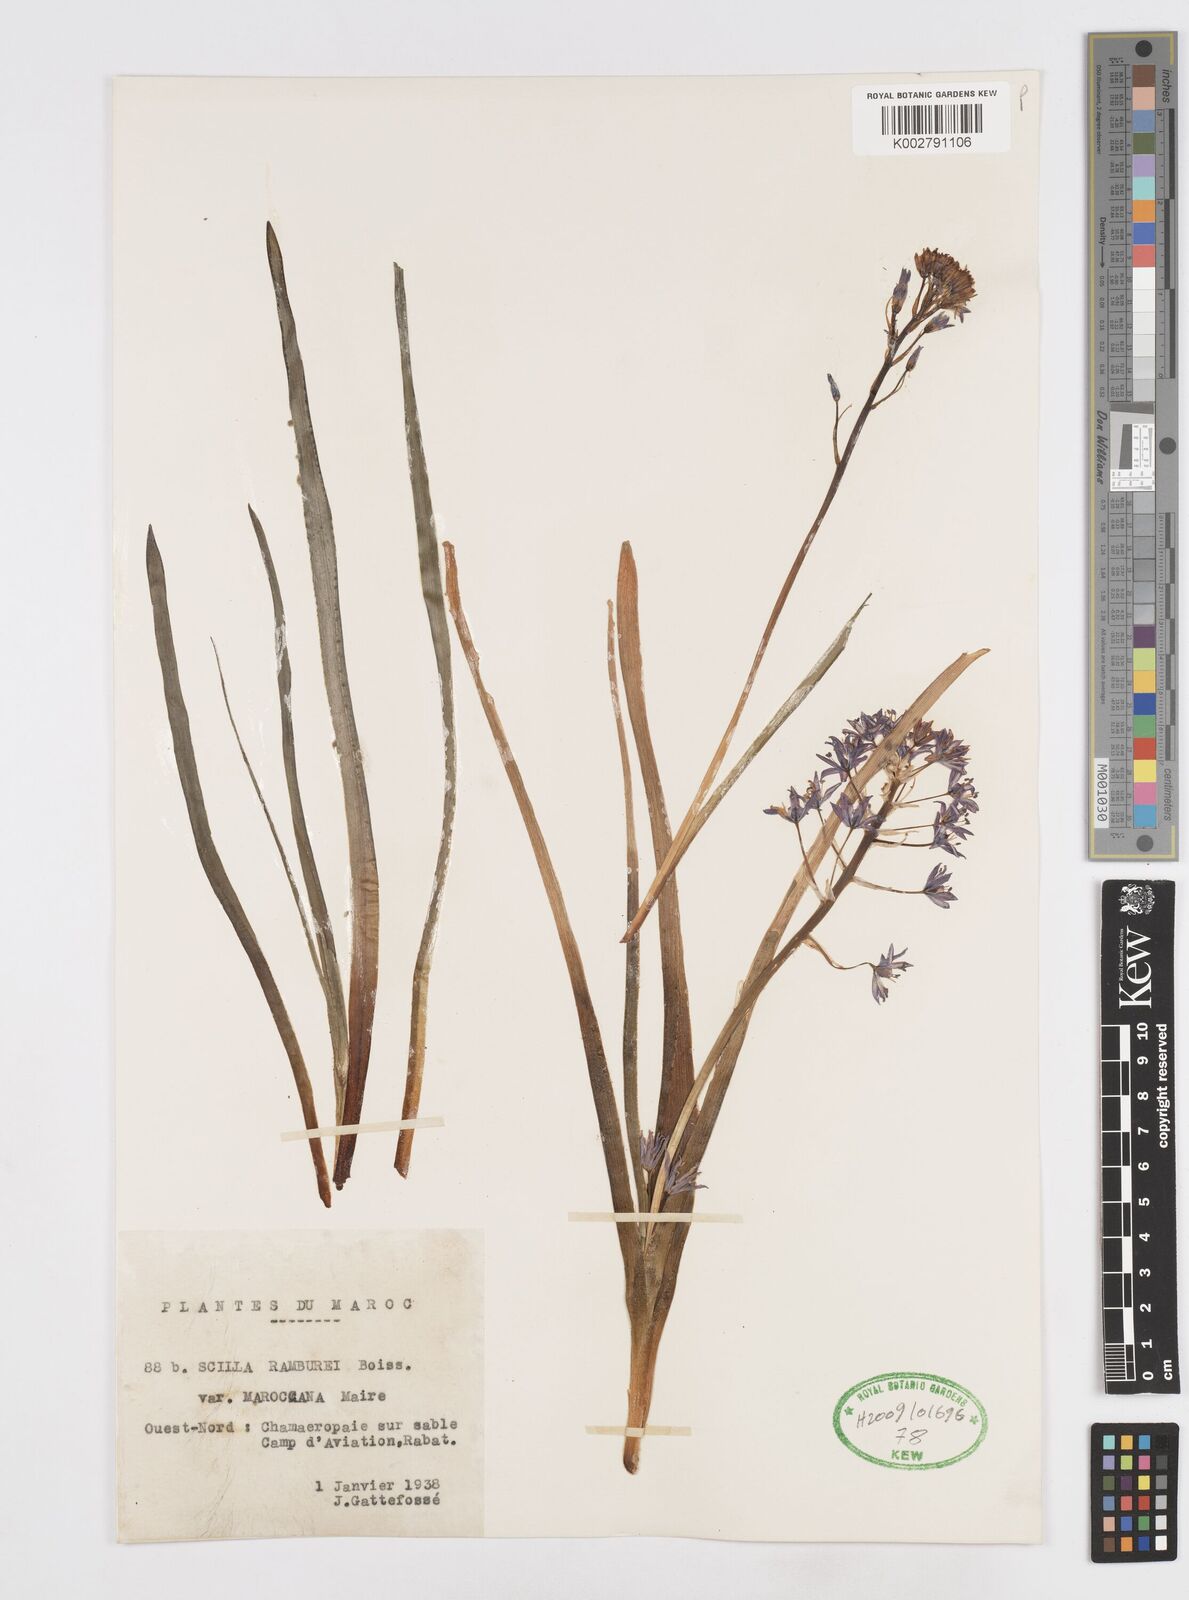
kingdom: Plantae
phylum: Tracheophyta
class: Liliopsida
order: Asparagales
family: Asparagaceae
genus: Scilla
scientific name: Scilla
